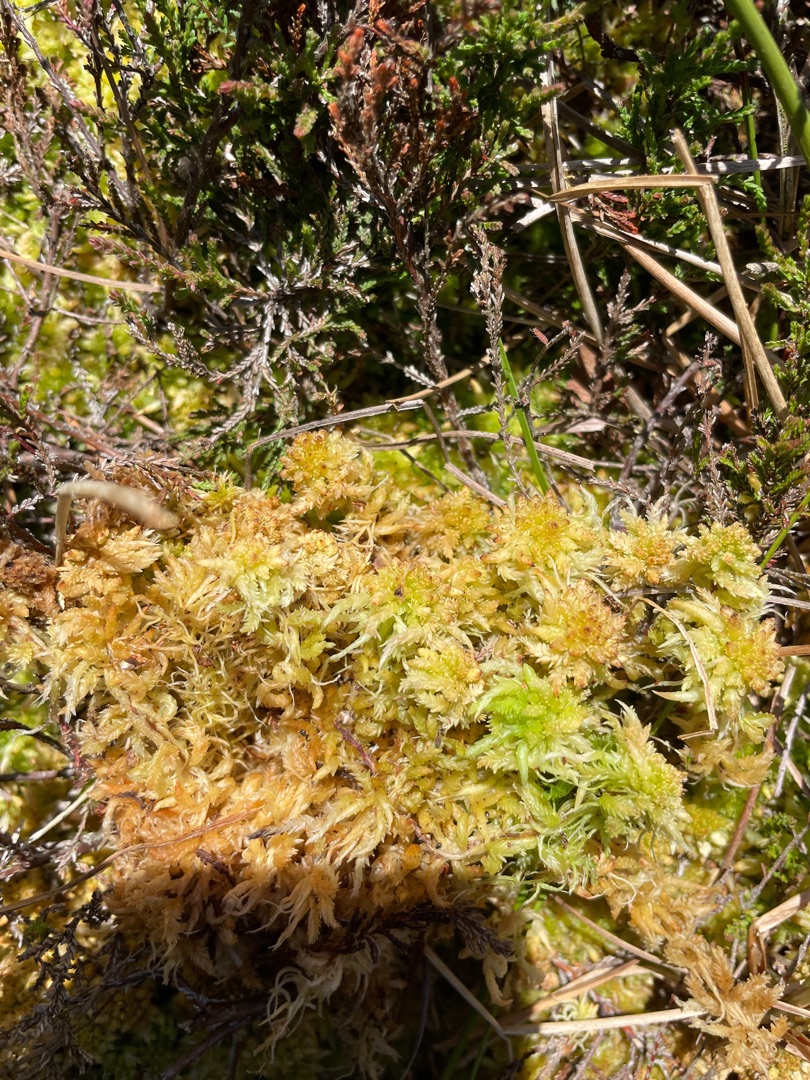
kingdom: Plantae
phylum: Bryophyta
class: Sphagnopsida
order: Sphagnales
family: Sphagnaceae
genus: Sphagnum
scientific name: Sphagnum palustre
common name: Almindelig tørvemos
